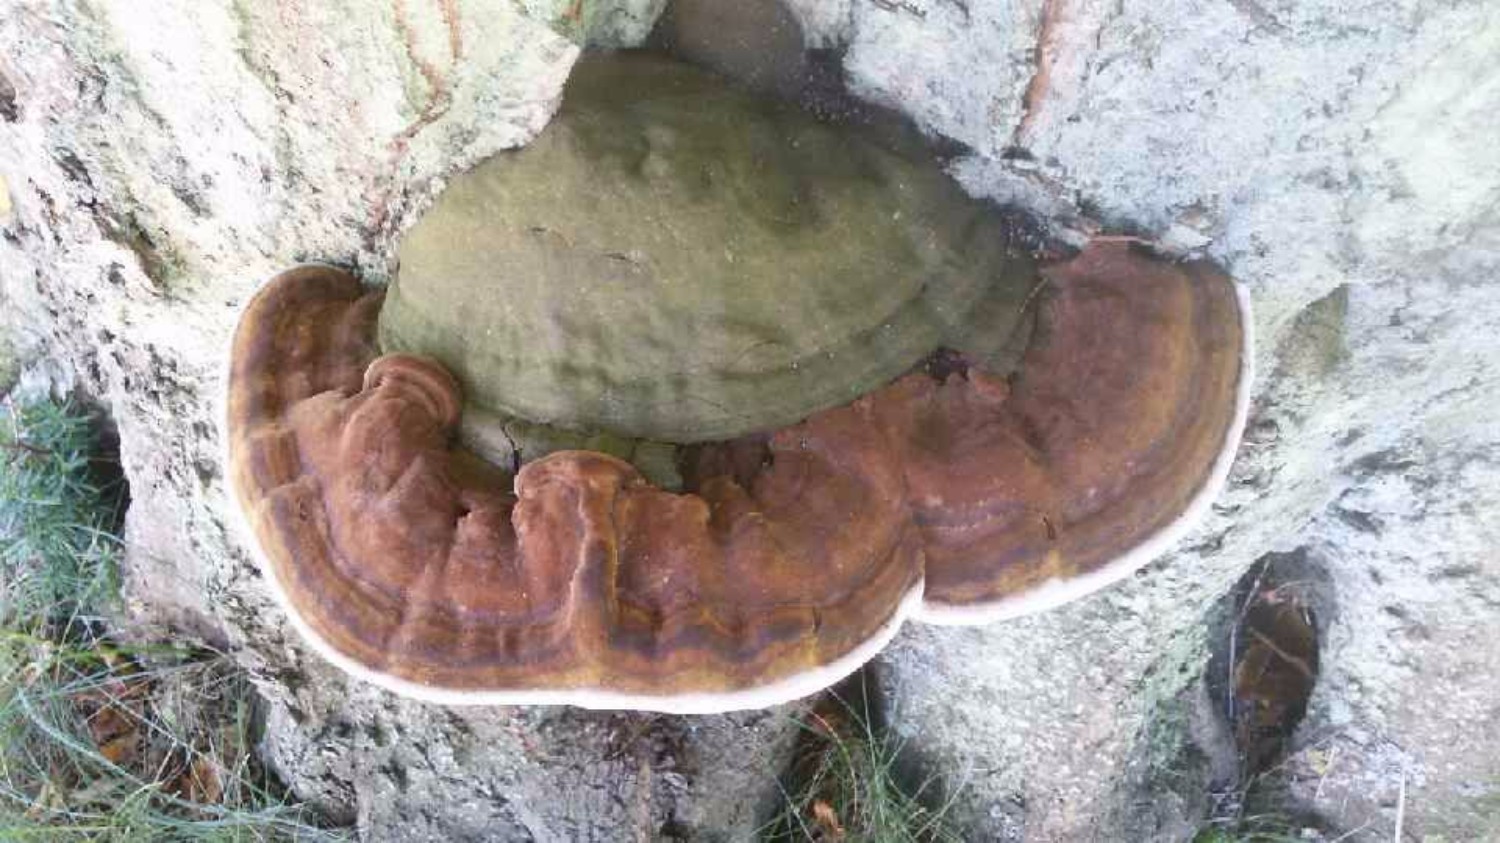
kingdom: Fungi
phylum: Basidiomycota
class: Agaricomycetes
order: Polyporales
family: Polyporaceae
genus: Ganoderma
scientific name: Ganoderma
